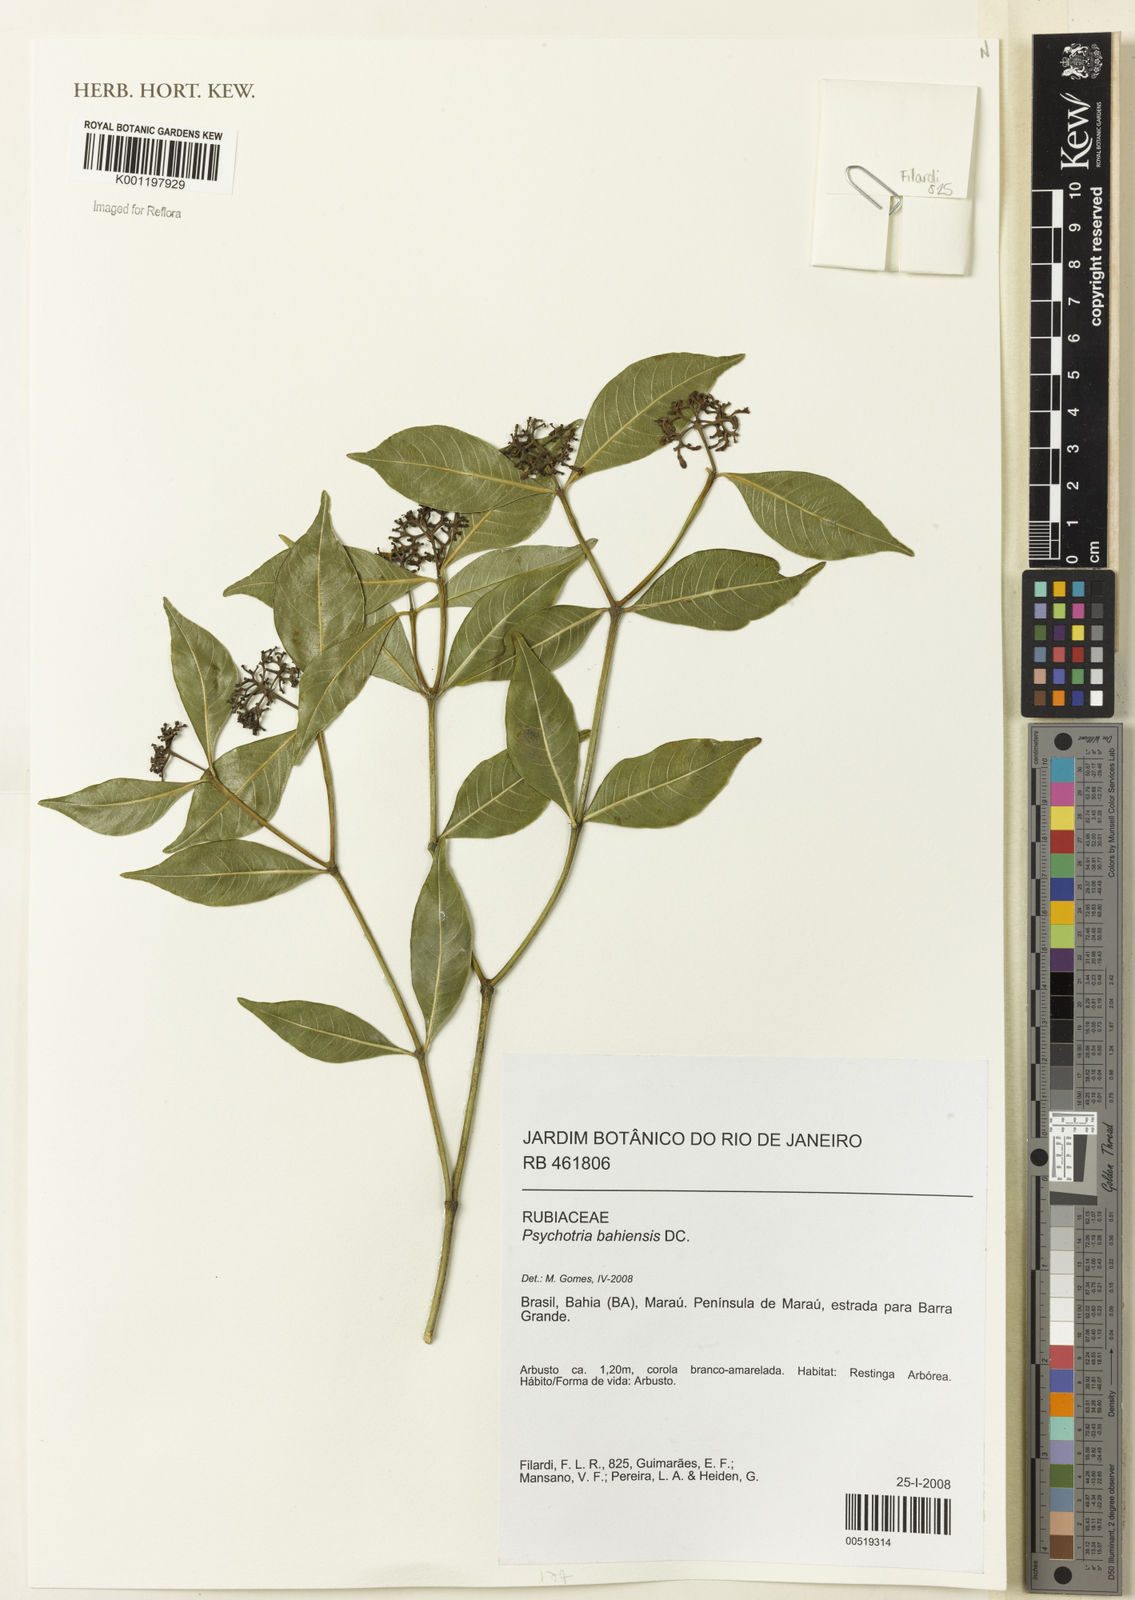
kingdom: Plantae
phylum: Tracheophyta
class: Magnoliopsida
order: Gentianales
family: Rubiaceae
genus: Psychotria
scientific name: Psychotria bahiensis
